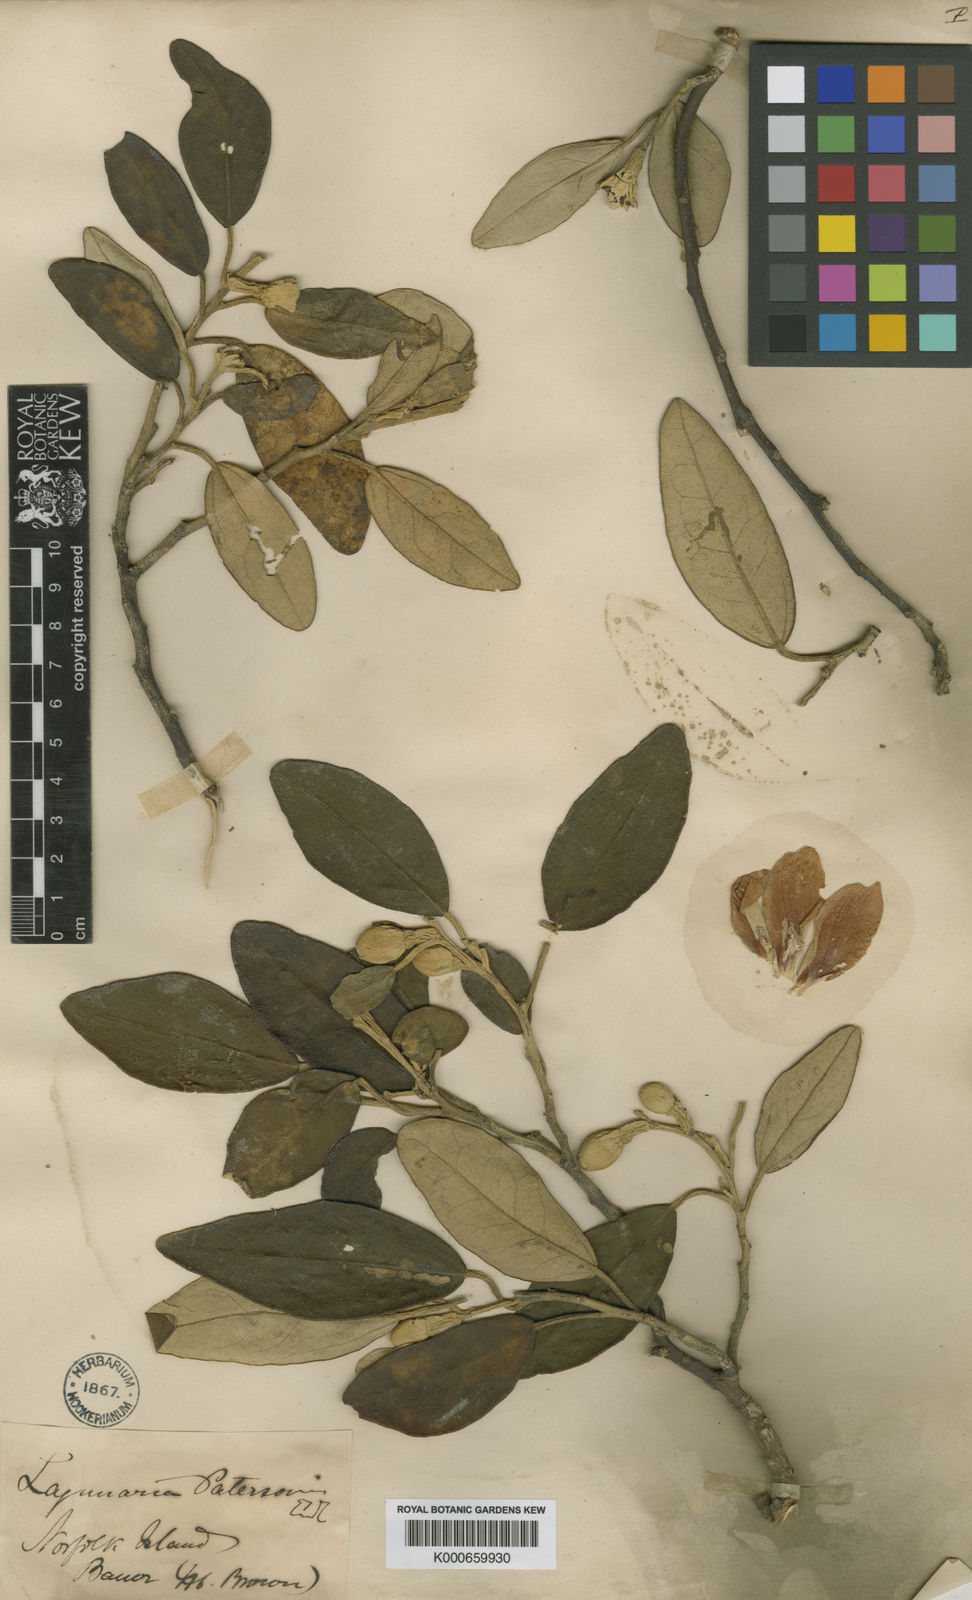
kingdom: Plantae
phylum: Tracheophyta
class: Magnoliopsida
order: Malvales
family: Malvaceae
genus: Lagunaria
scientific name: Lagunaria patersonia
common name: Cow itch tree
